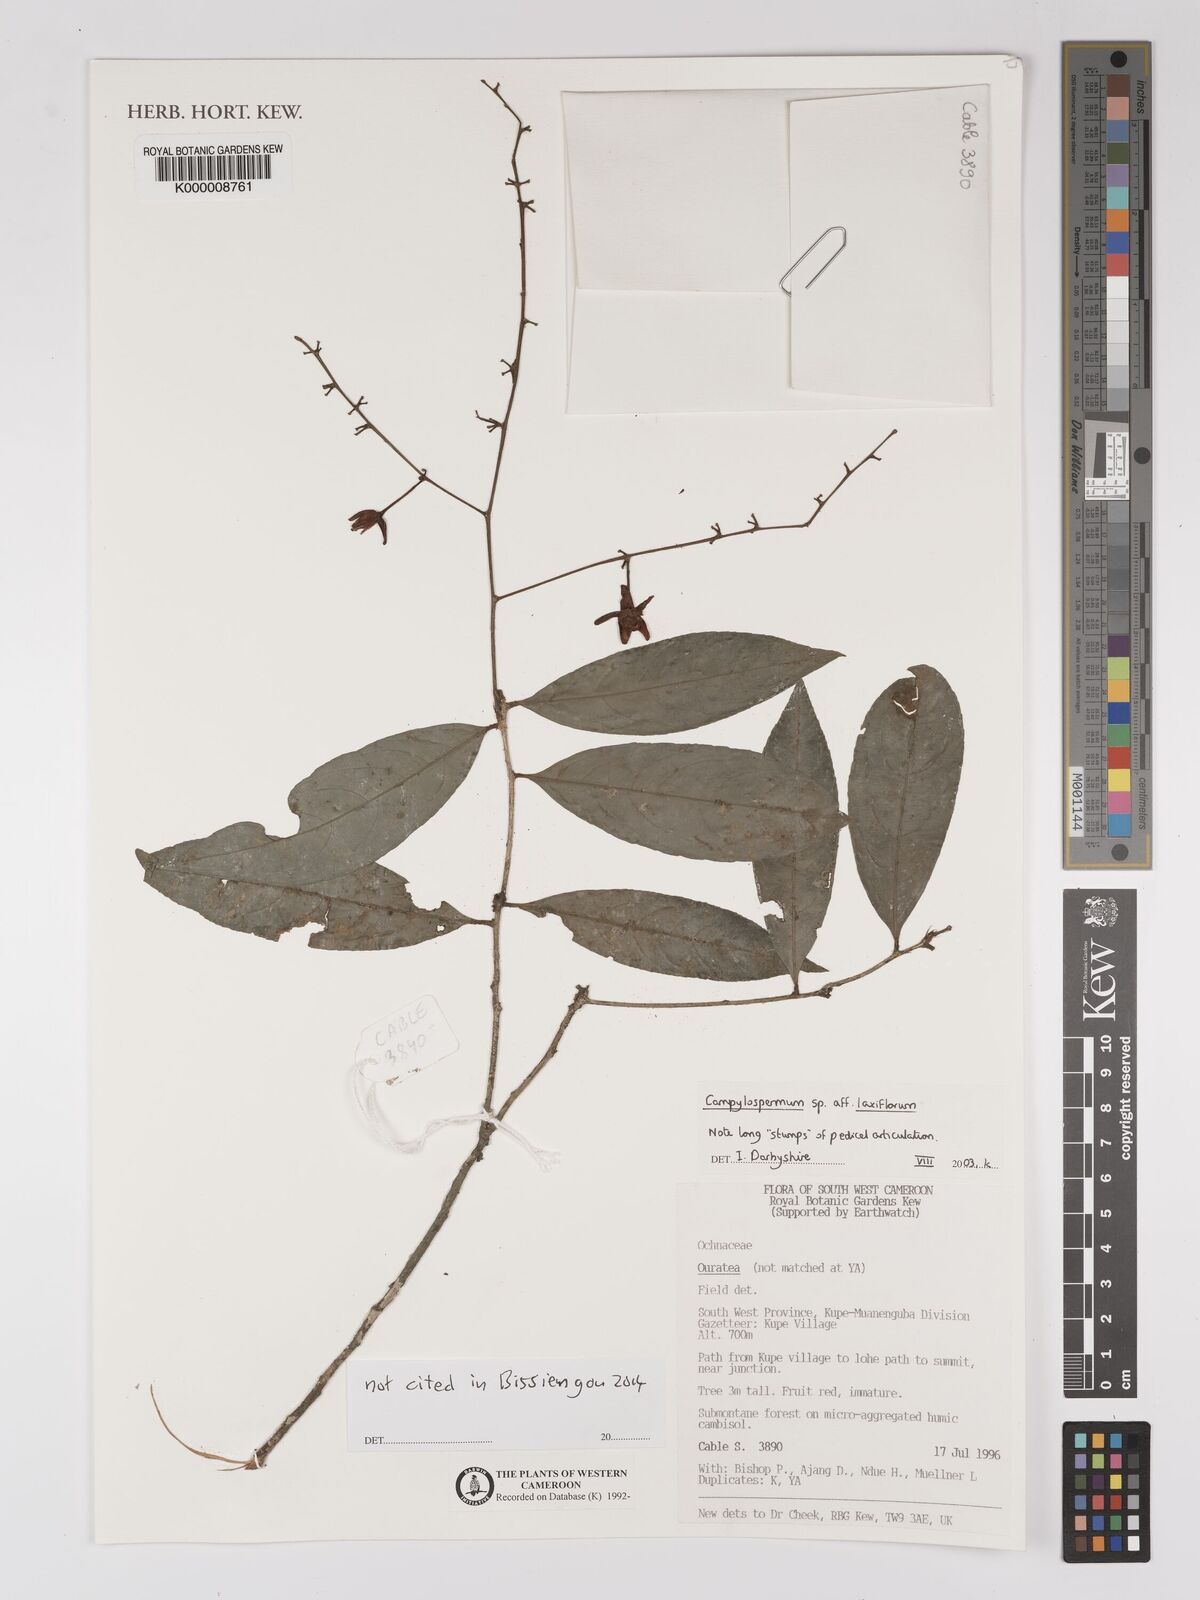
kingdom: Plantae
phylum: Tracheophyta
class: Magnoliopsida
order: Malpighiales
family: Ochnaceae
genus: Campylospermum
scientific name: Campylospermum laxiflorum
